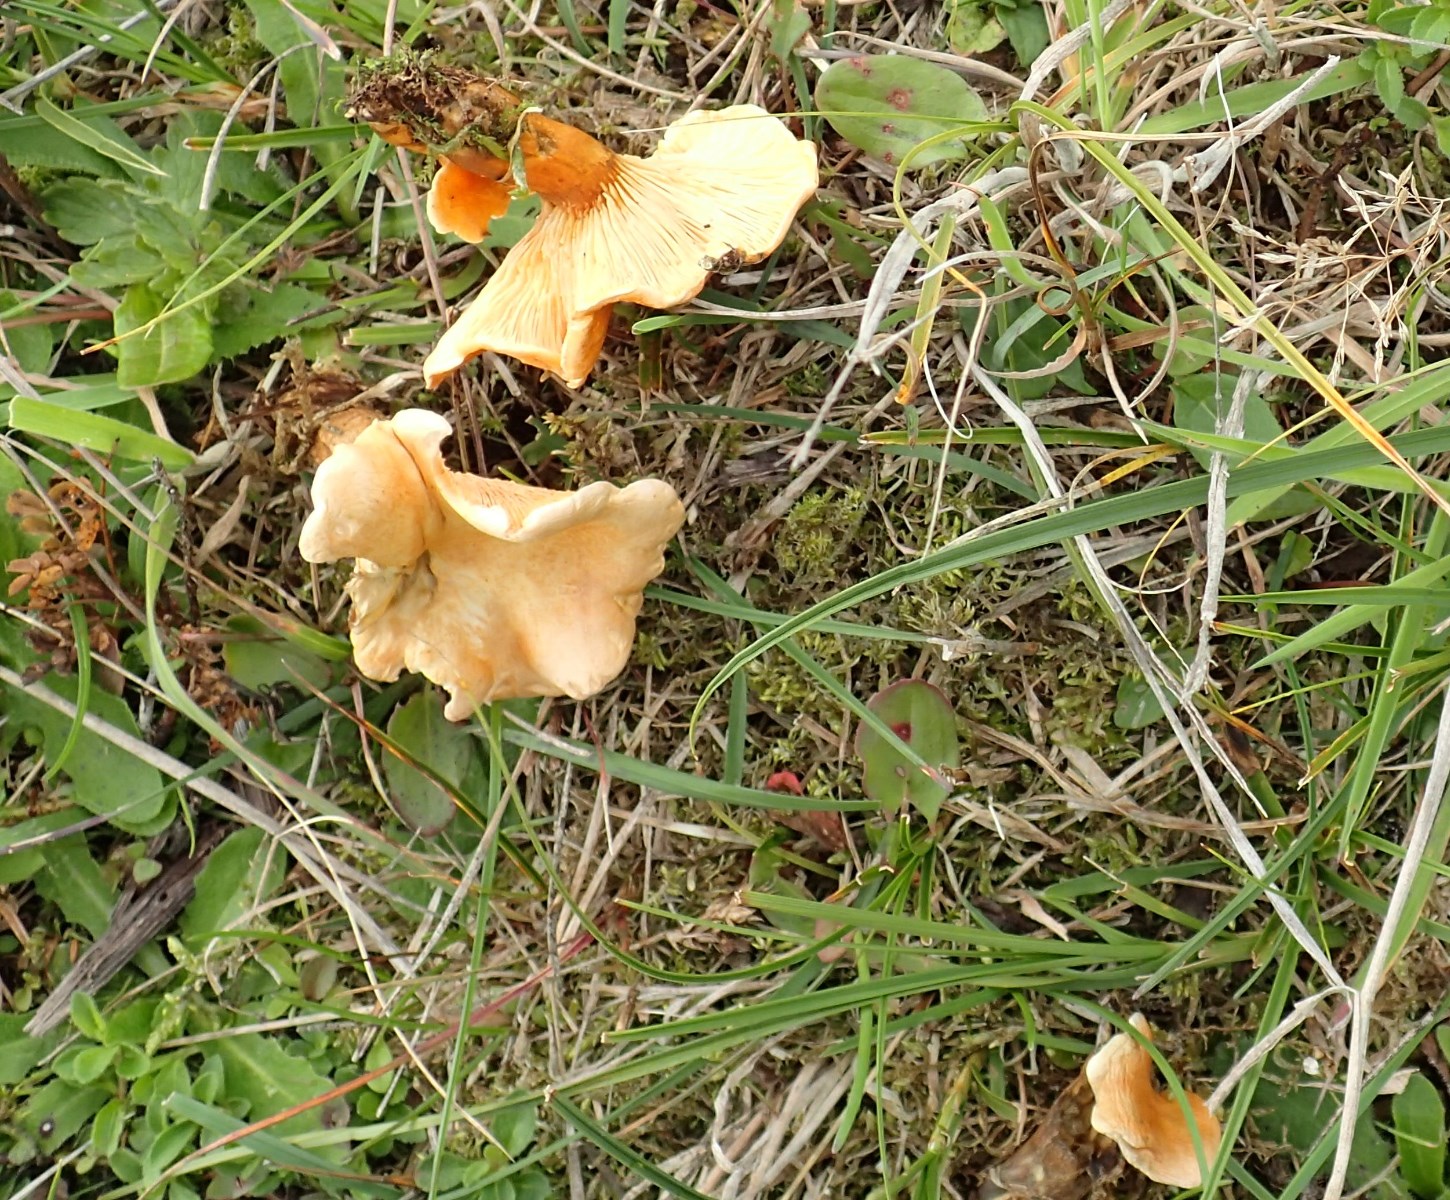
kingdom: Fungi
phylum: Basidiomycota
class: Agaricomycetes
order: Boletales
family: Hygrophoropsidaceae
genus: Hygrophoropsis
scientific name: Hygrophoropsis aurantiaca
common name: almindelig orangekantarel
